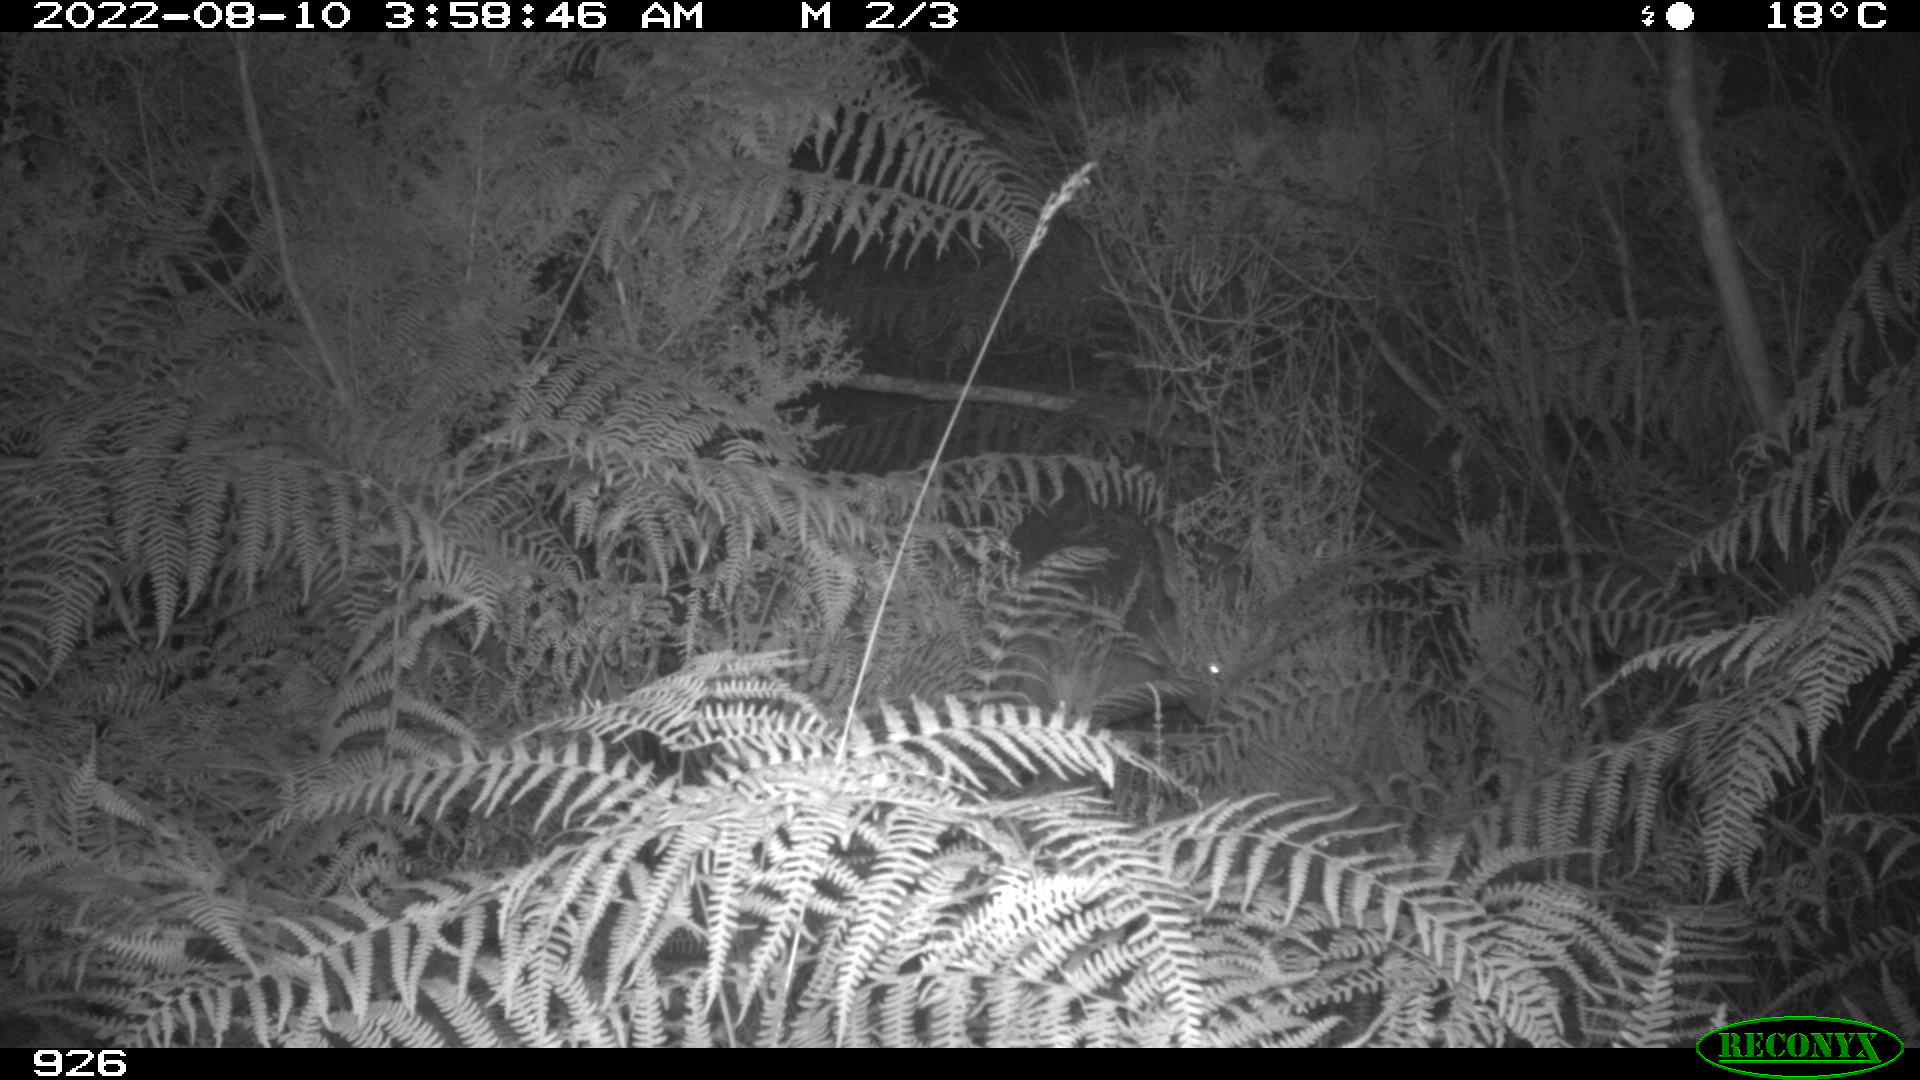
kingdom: Animalia
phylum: Chordata
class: Mammalia
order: Artiodactyla
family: Cervidae
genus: Capreolus
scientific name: Capreolus capreolus
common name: Western roe deer
